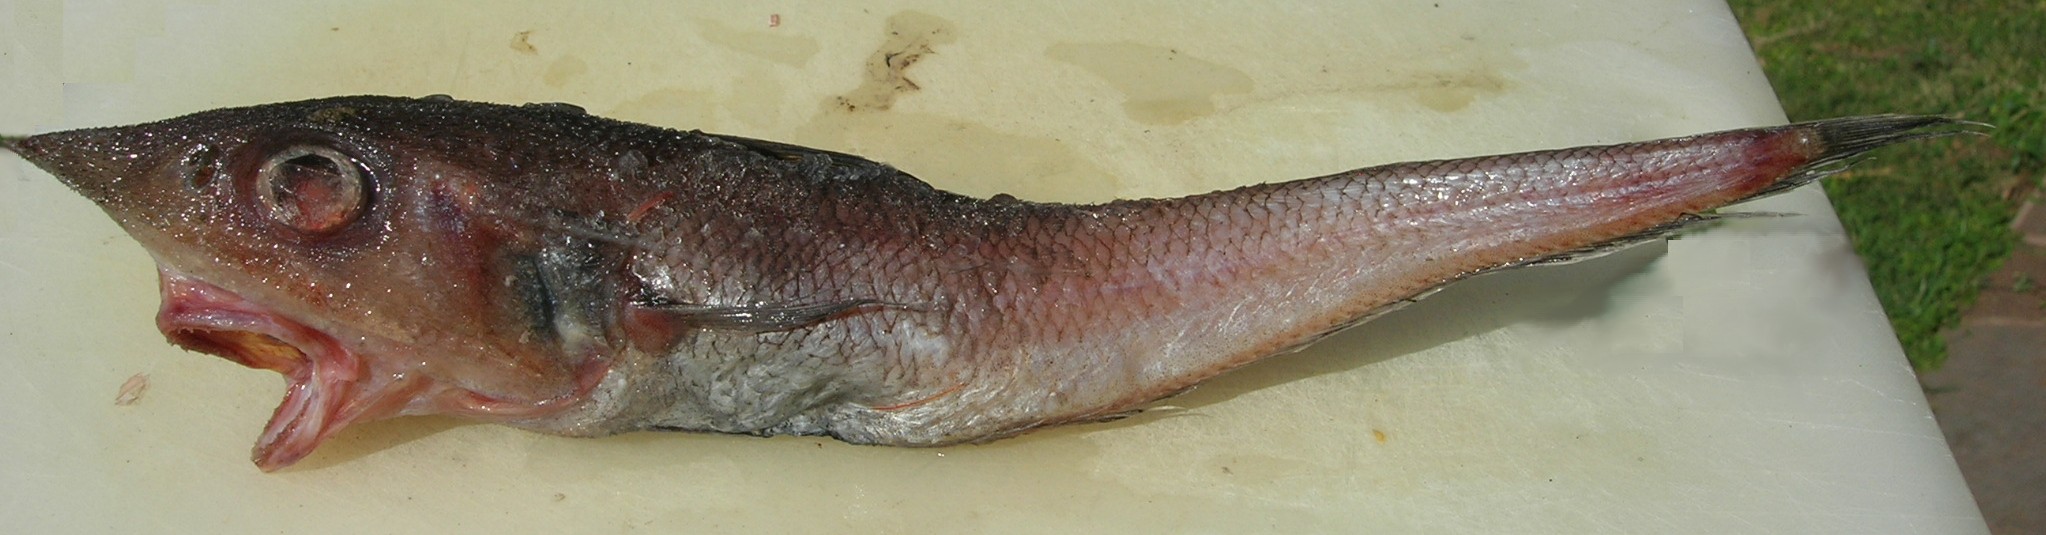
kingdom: Animalia
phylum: Chordata
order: Gadiformes
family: Macrouridae
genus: Coelorinchus
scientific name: Coelorinchus flabellispinnis
